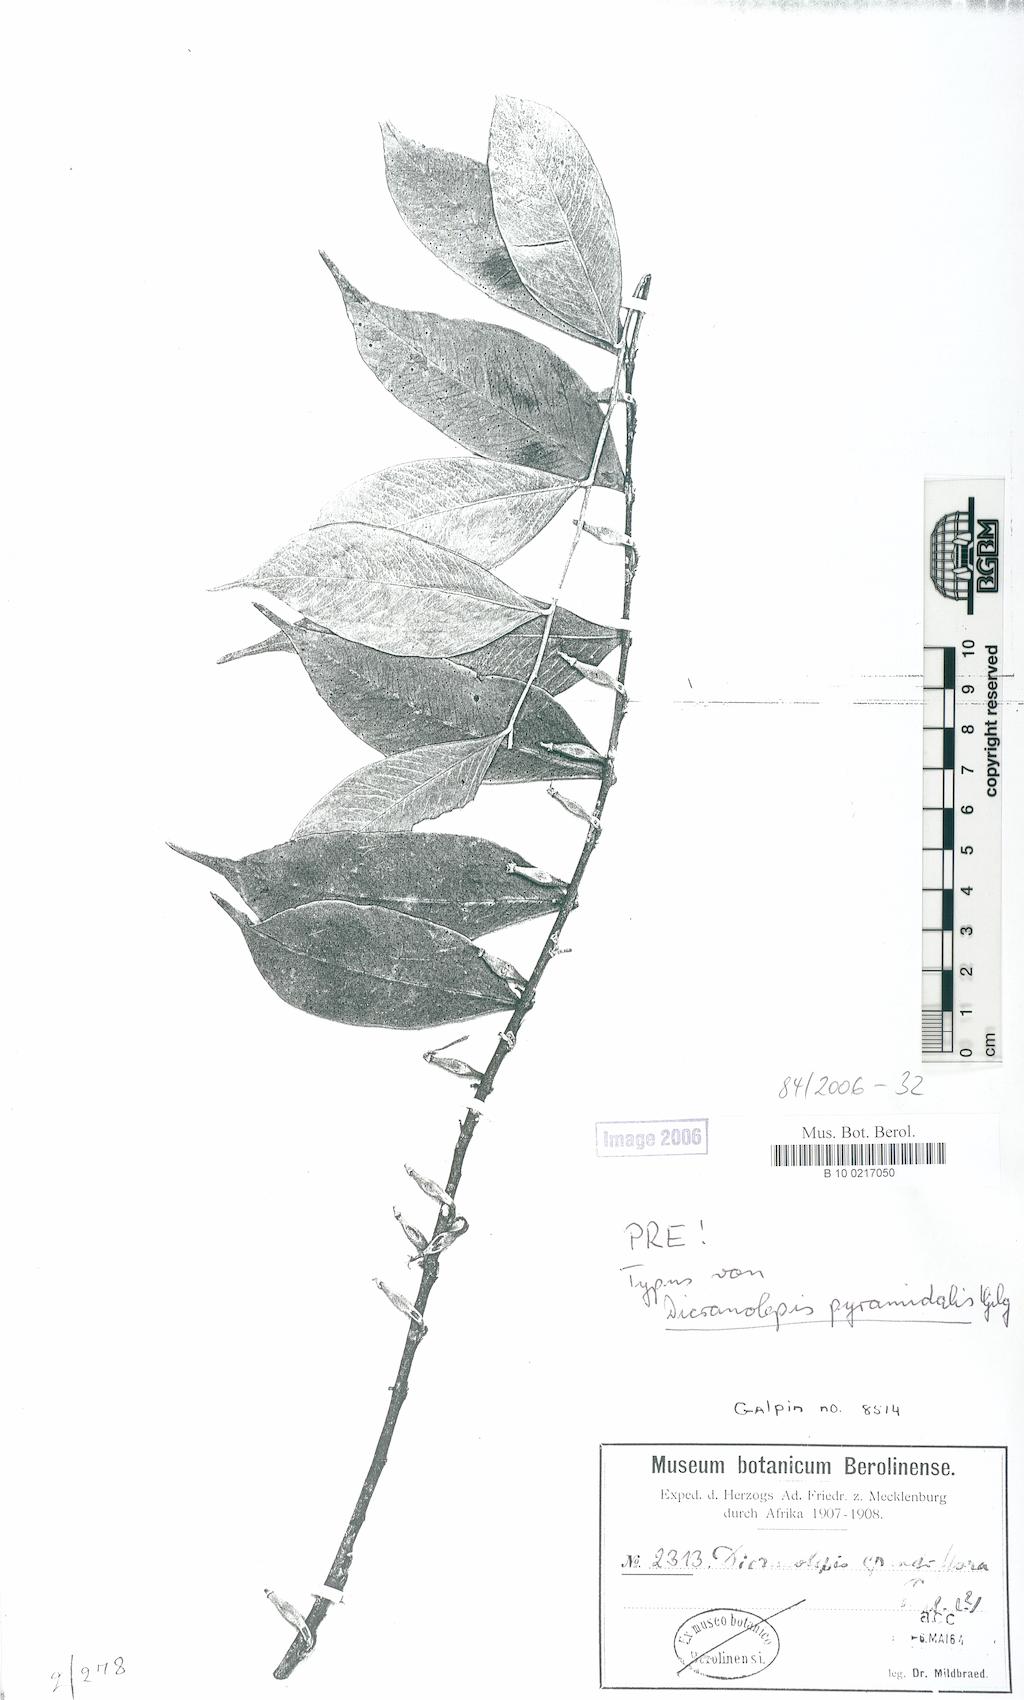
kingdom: Plantae
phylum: Tracheophyta
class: Magnoliopsida
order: Malvales
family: Thymelaeaceae
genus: Dicranolepis
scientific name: Dicranolepis pyramidalis
